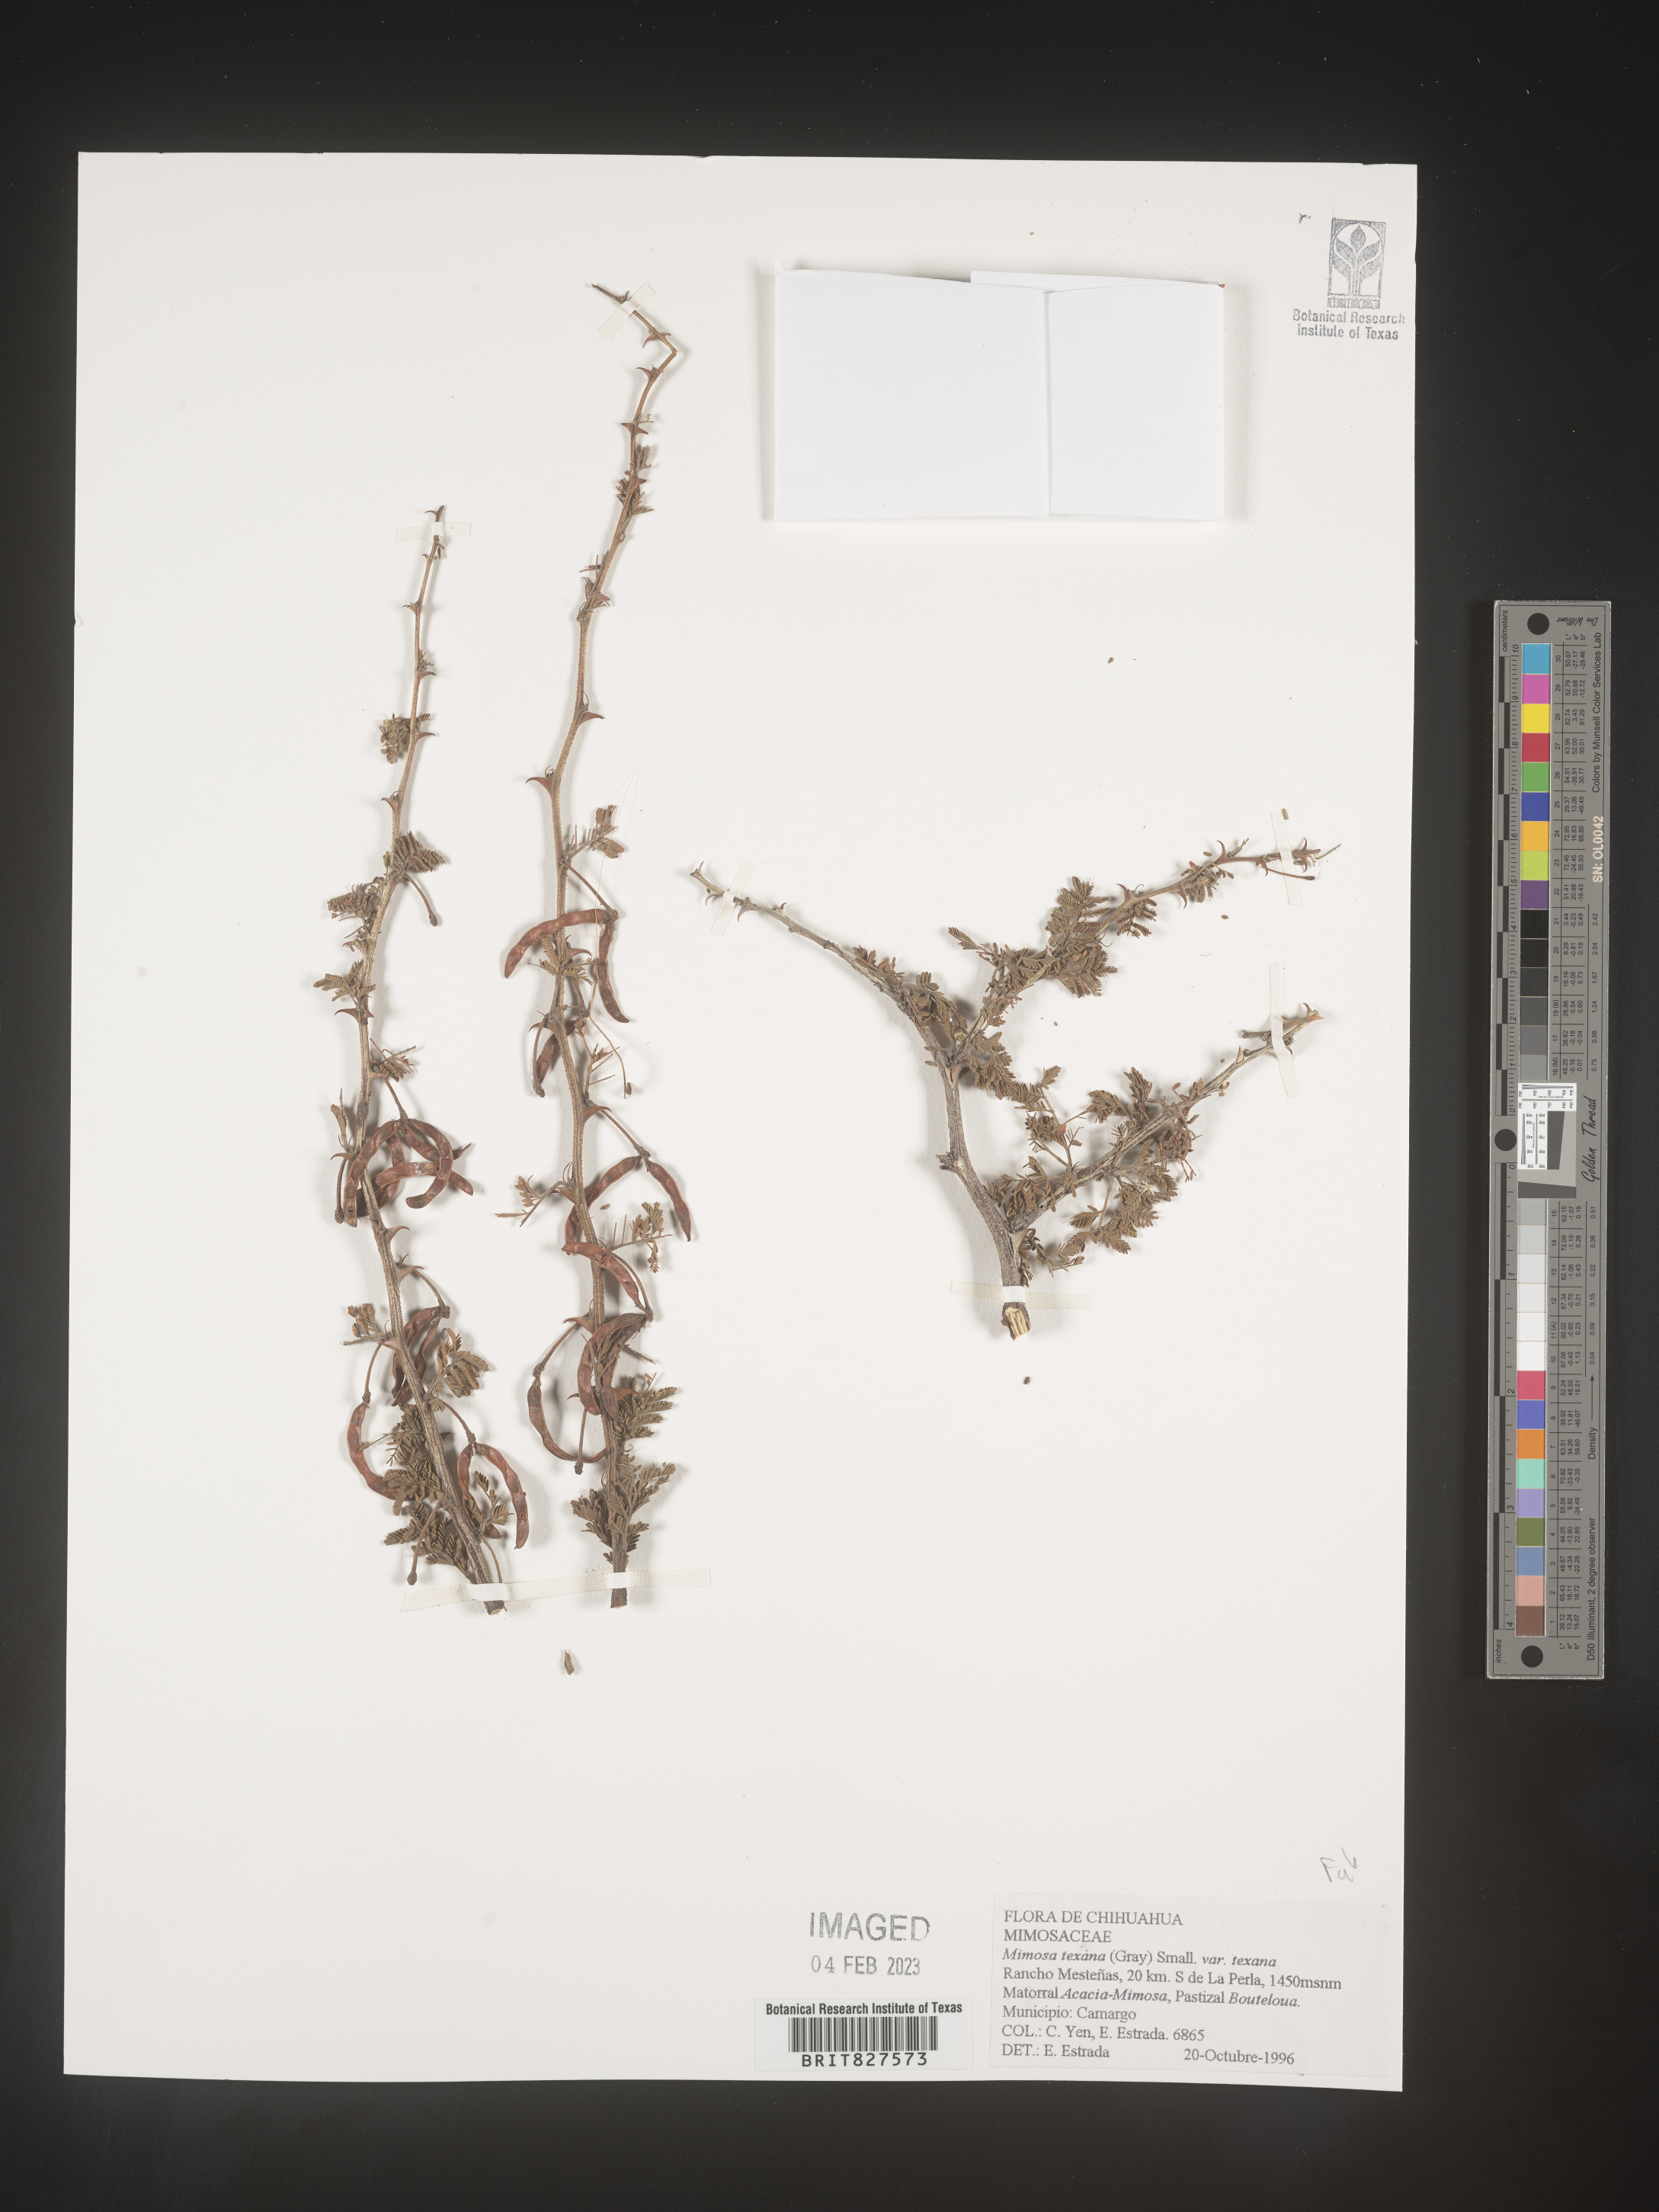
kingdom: Plantae
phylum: Tracheophyta
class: Magnoliopsida
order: Fabales
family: Fabaceae
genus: Mimosa
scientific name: Mimosa
